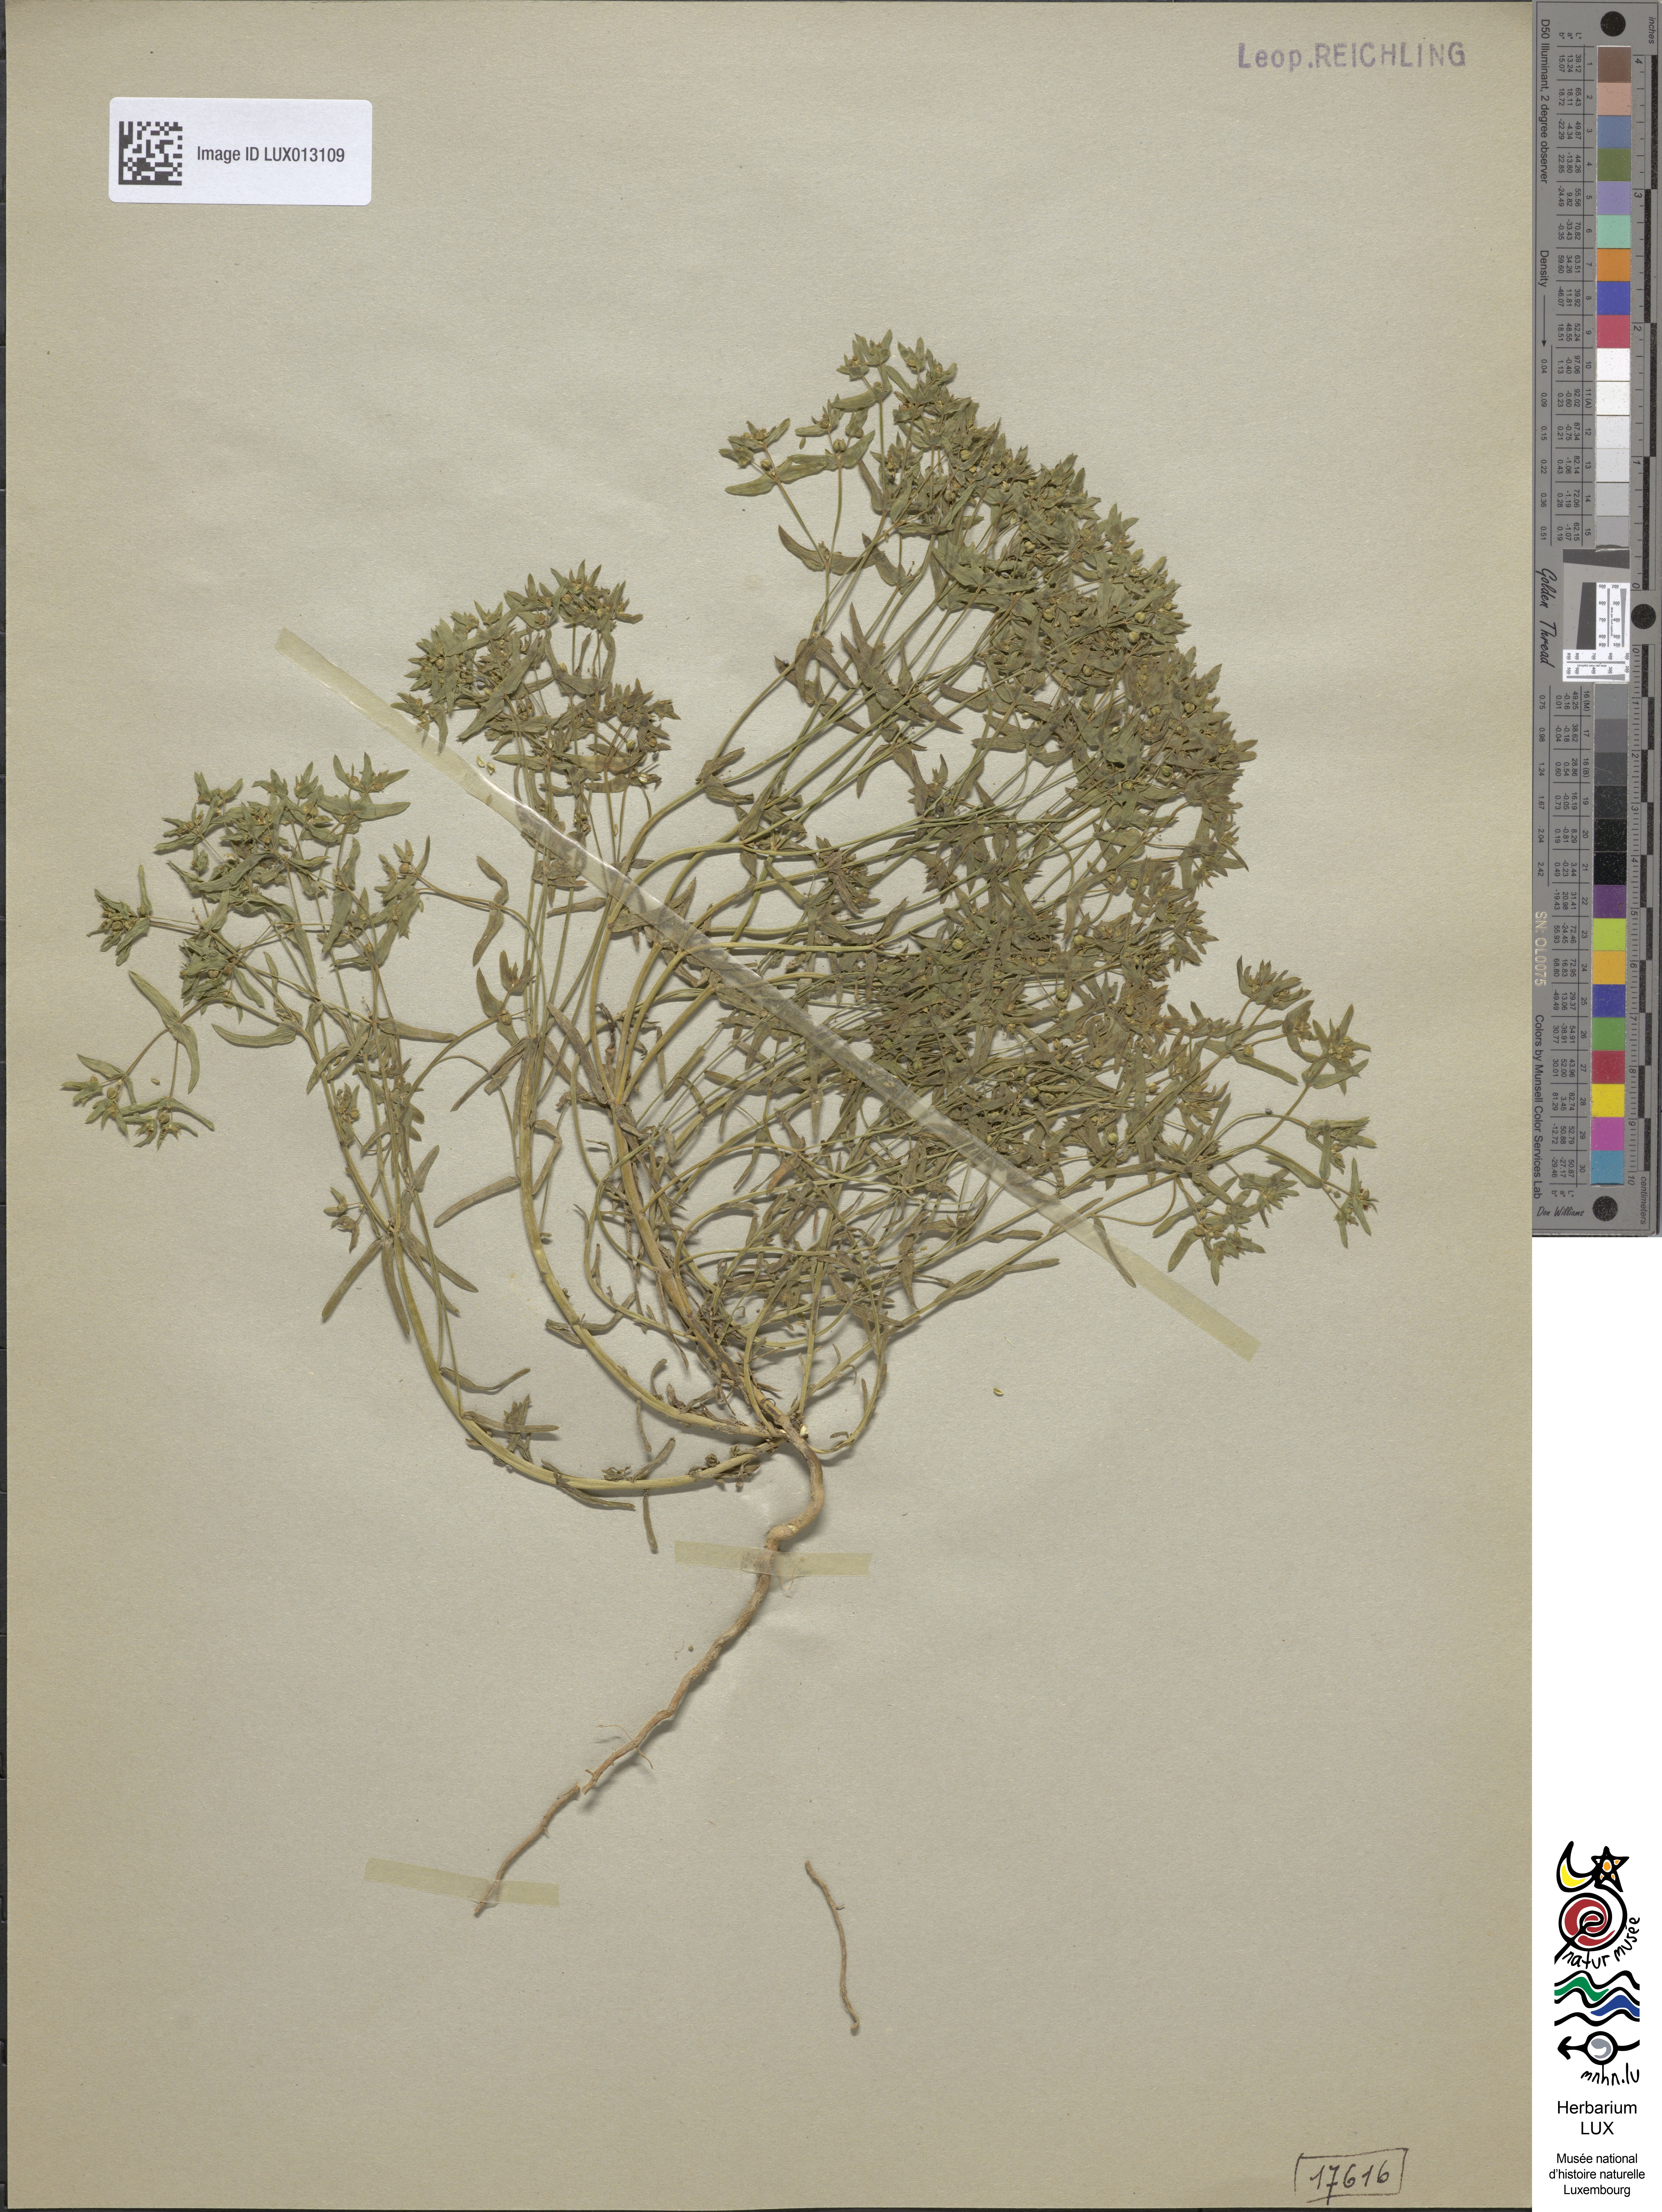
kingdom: Plantae
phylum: Tracheophyta
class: Magnoliopsida
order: Malpighiales
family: Euphorbiaceae
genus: Euphorbia
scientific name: Euphorbia exigua
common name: Dwarf spurge
